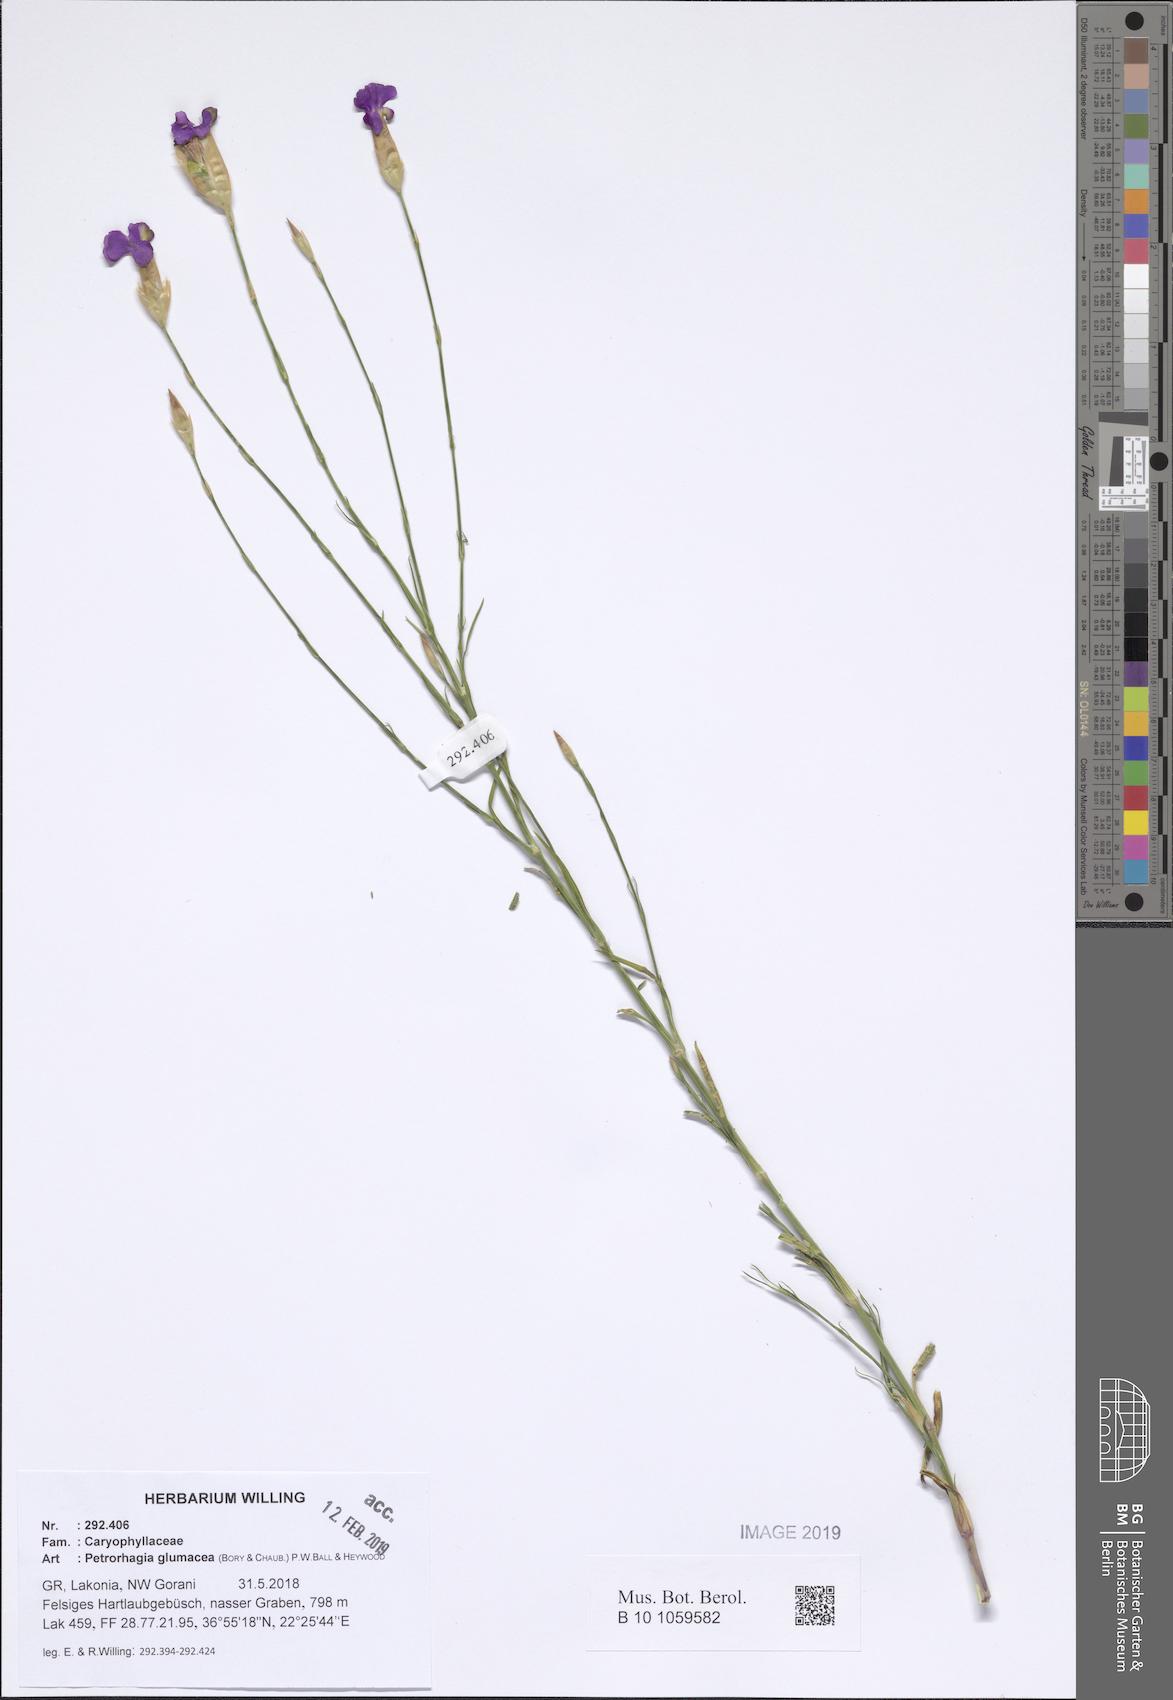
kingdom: Plantae
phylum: Tracheophyta
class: Magnoliopsida
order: Caryophyllales
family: Caryophyllaceae
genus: Petrorhagia
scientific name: Petrorhagia glumacea
